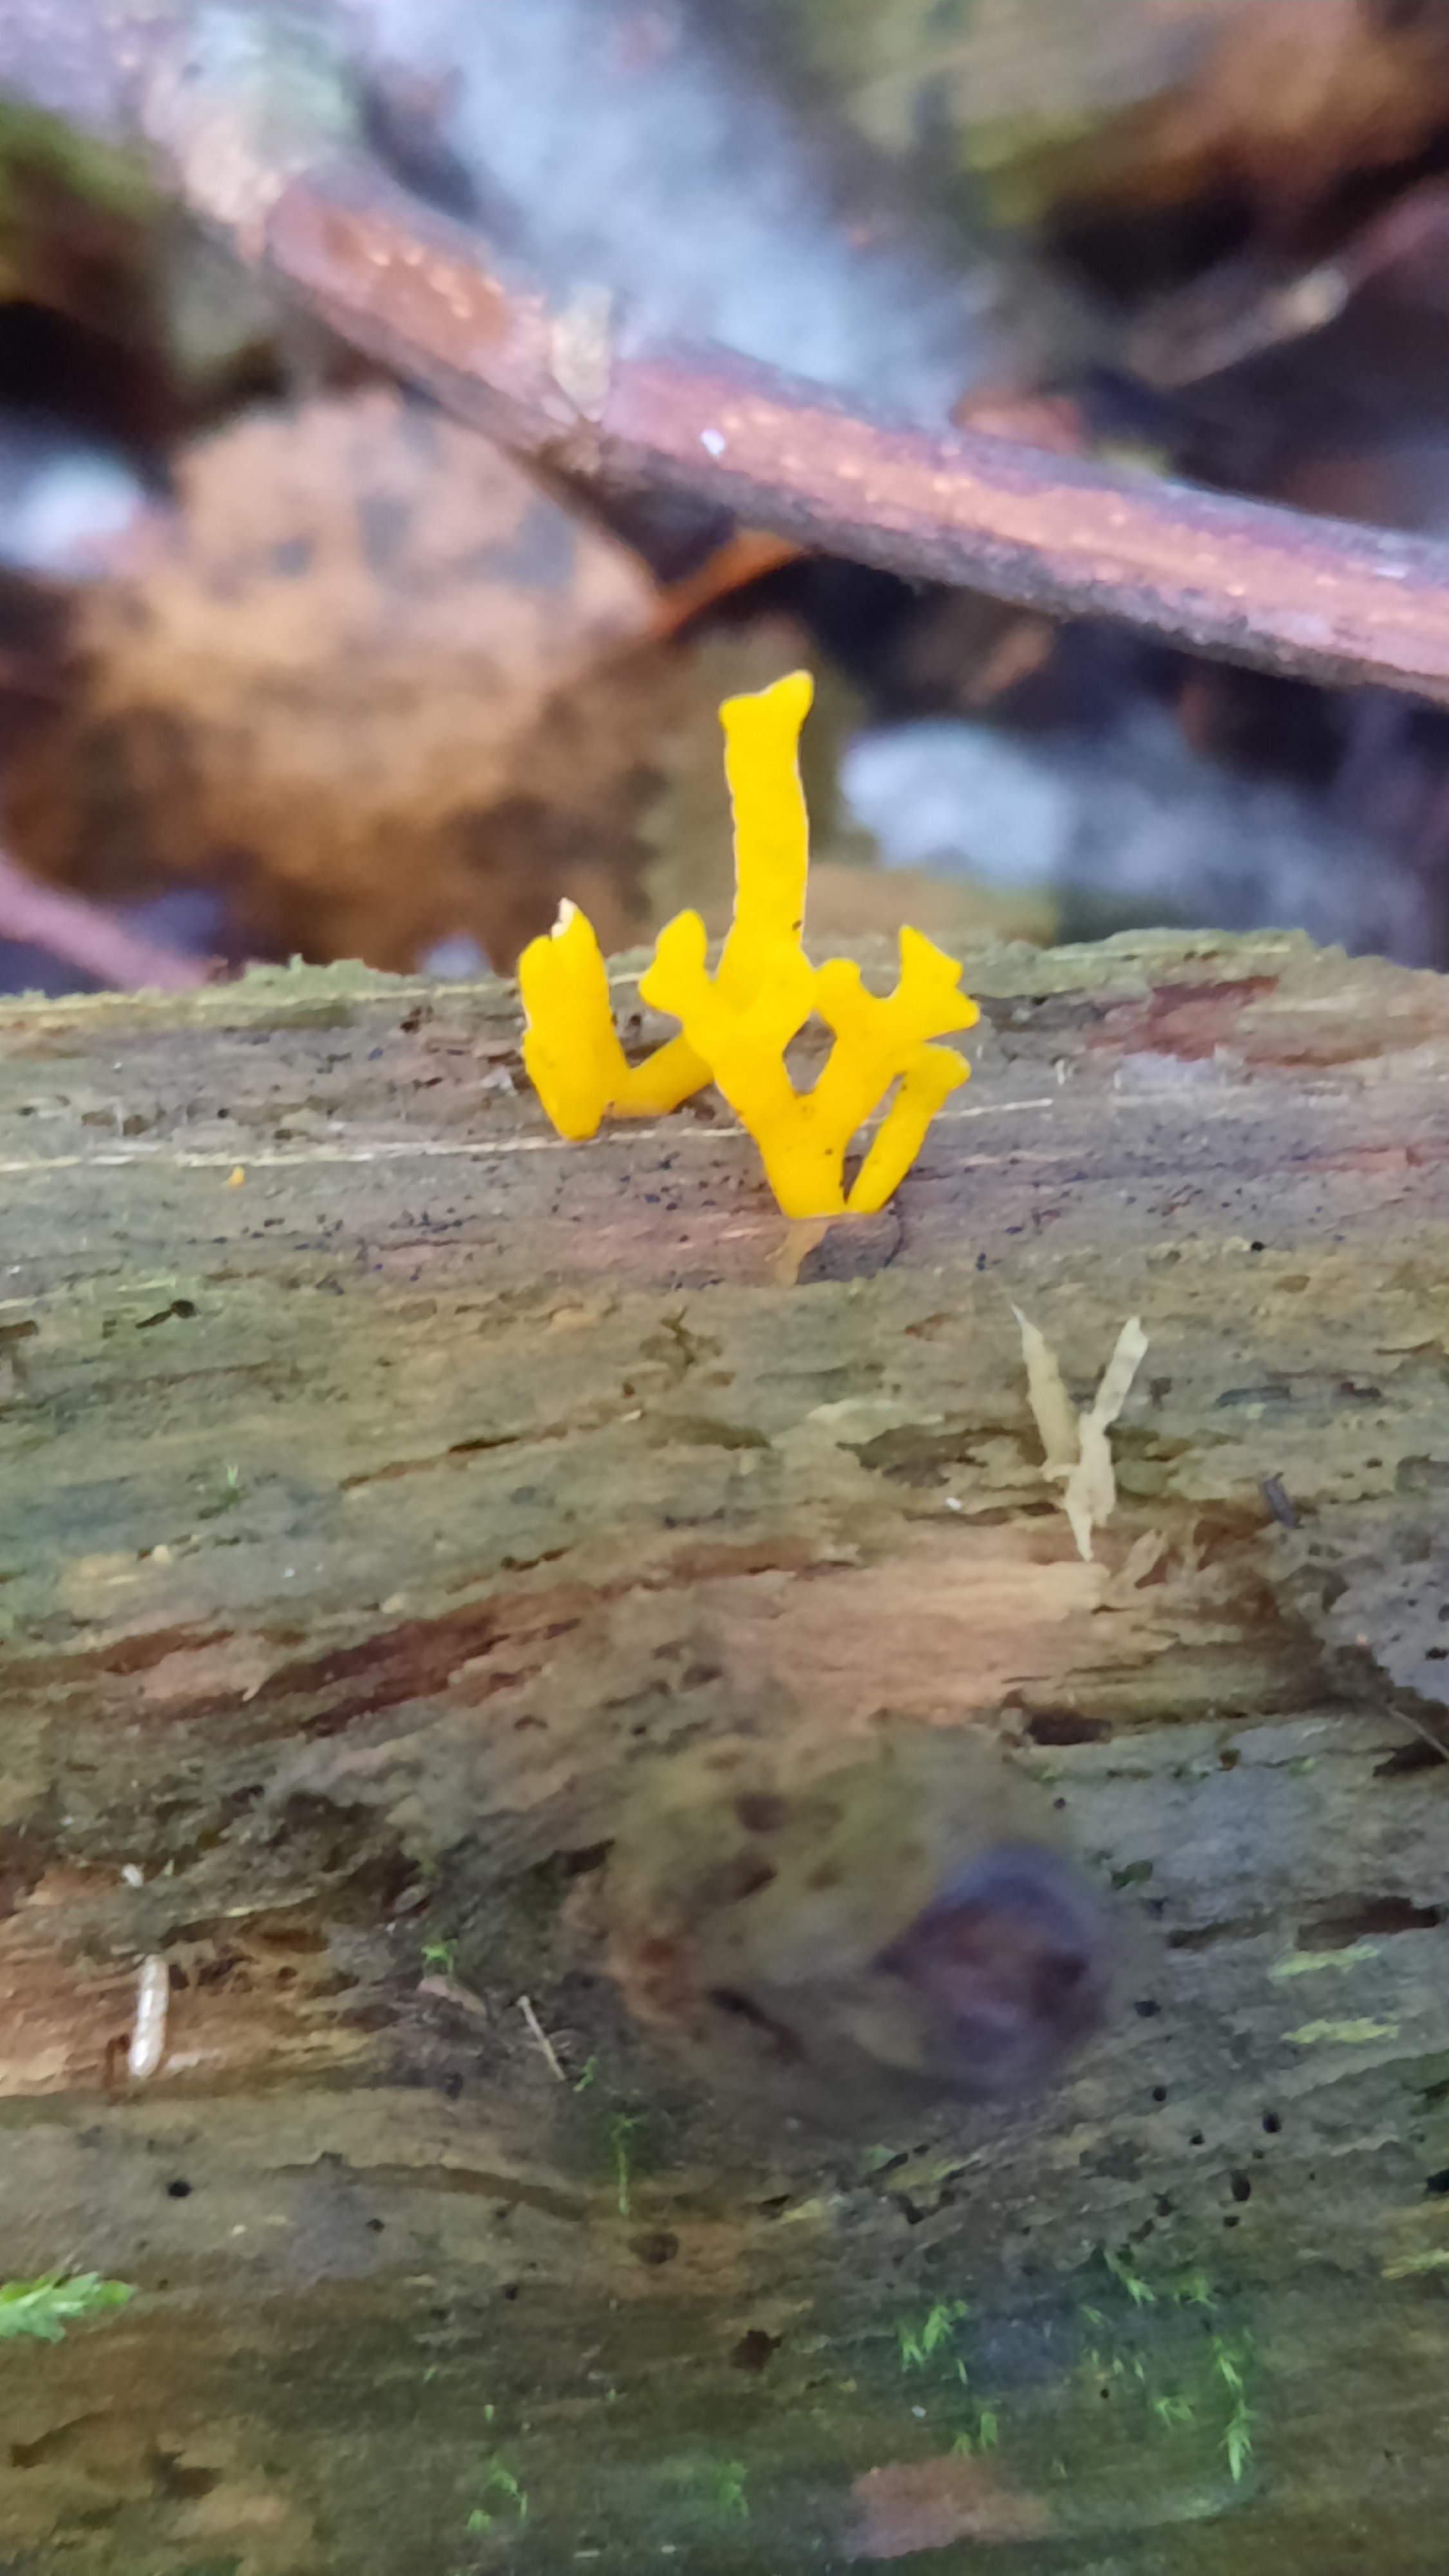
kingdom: Fungi
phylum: Basidiomycota
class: Dacrymycetes
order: Dacrymycetales
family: Dacrymycetaceae
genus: Calocera
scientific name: Calocera viscosa
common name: almindelig guldgaffel
